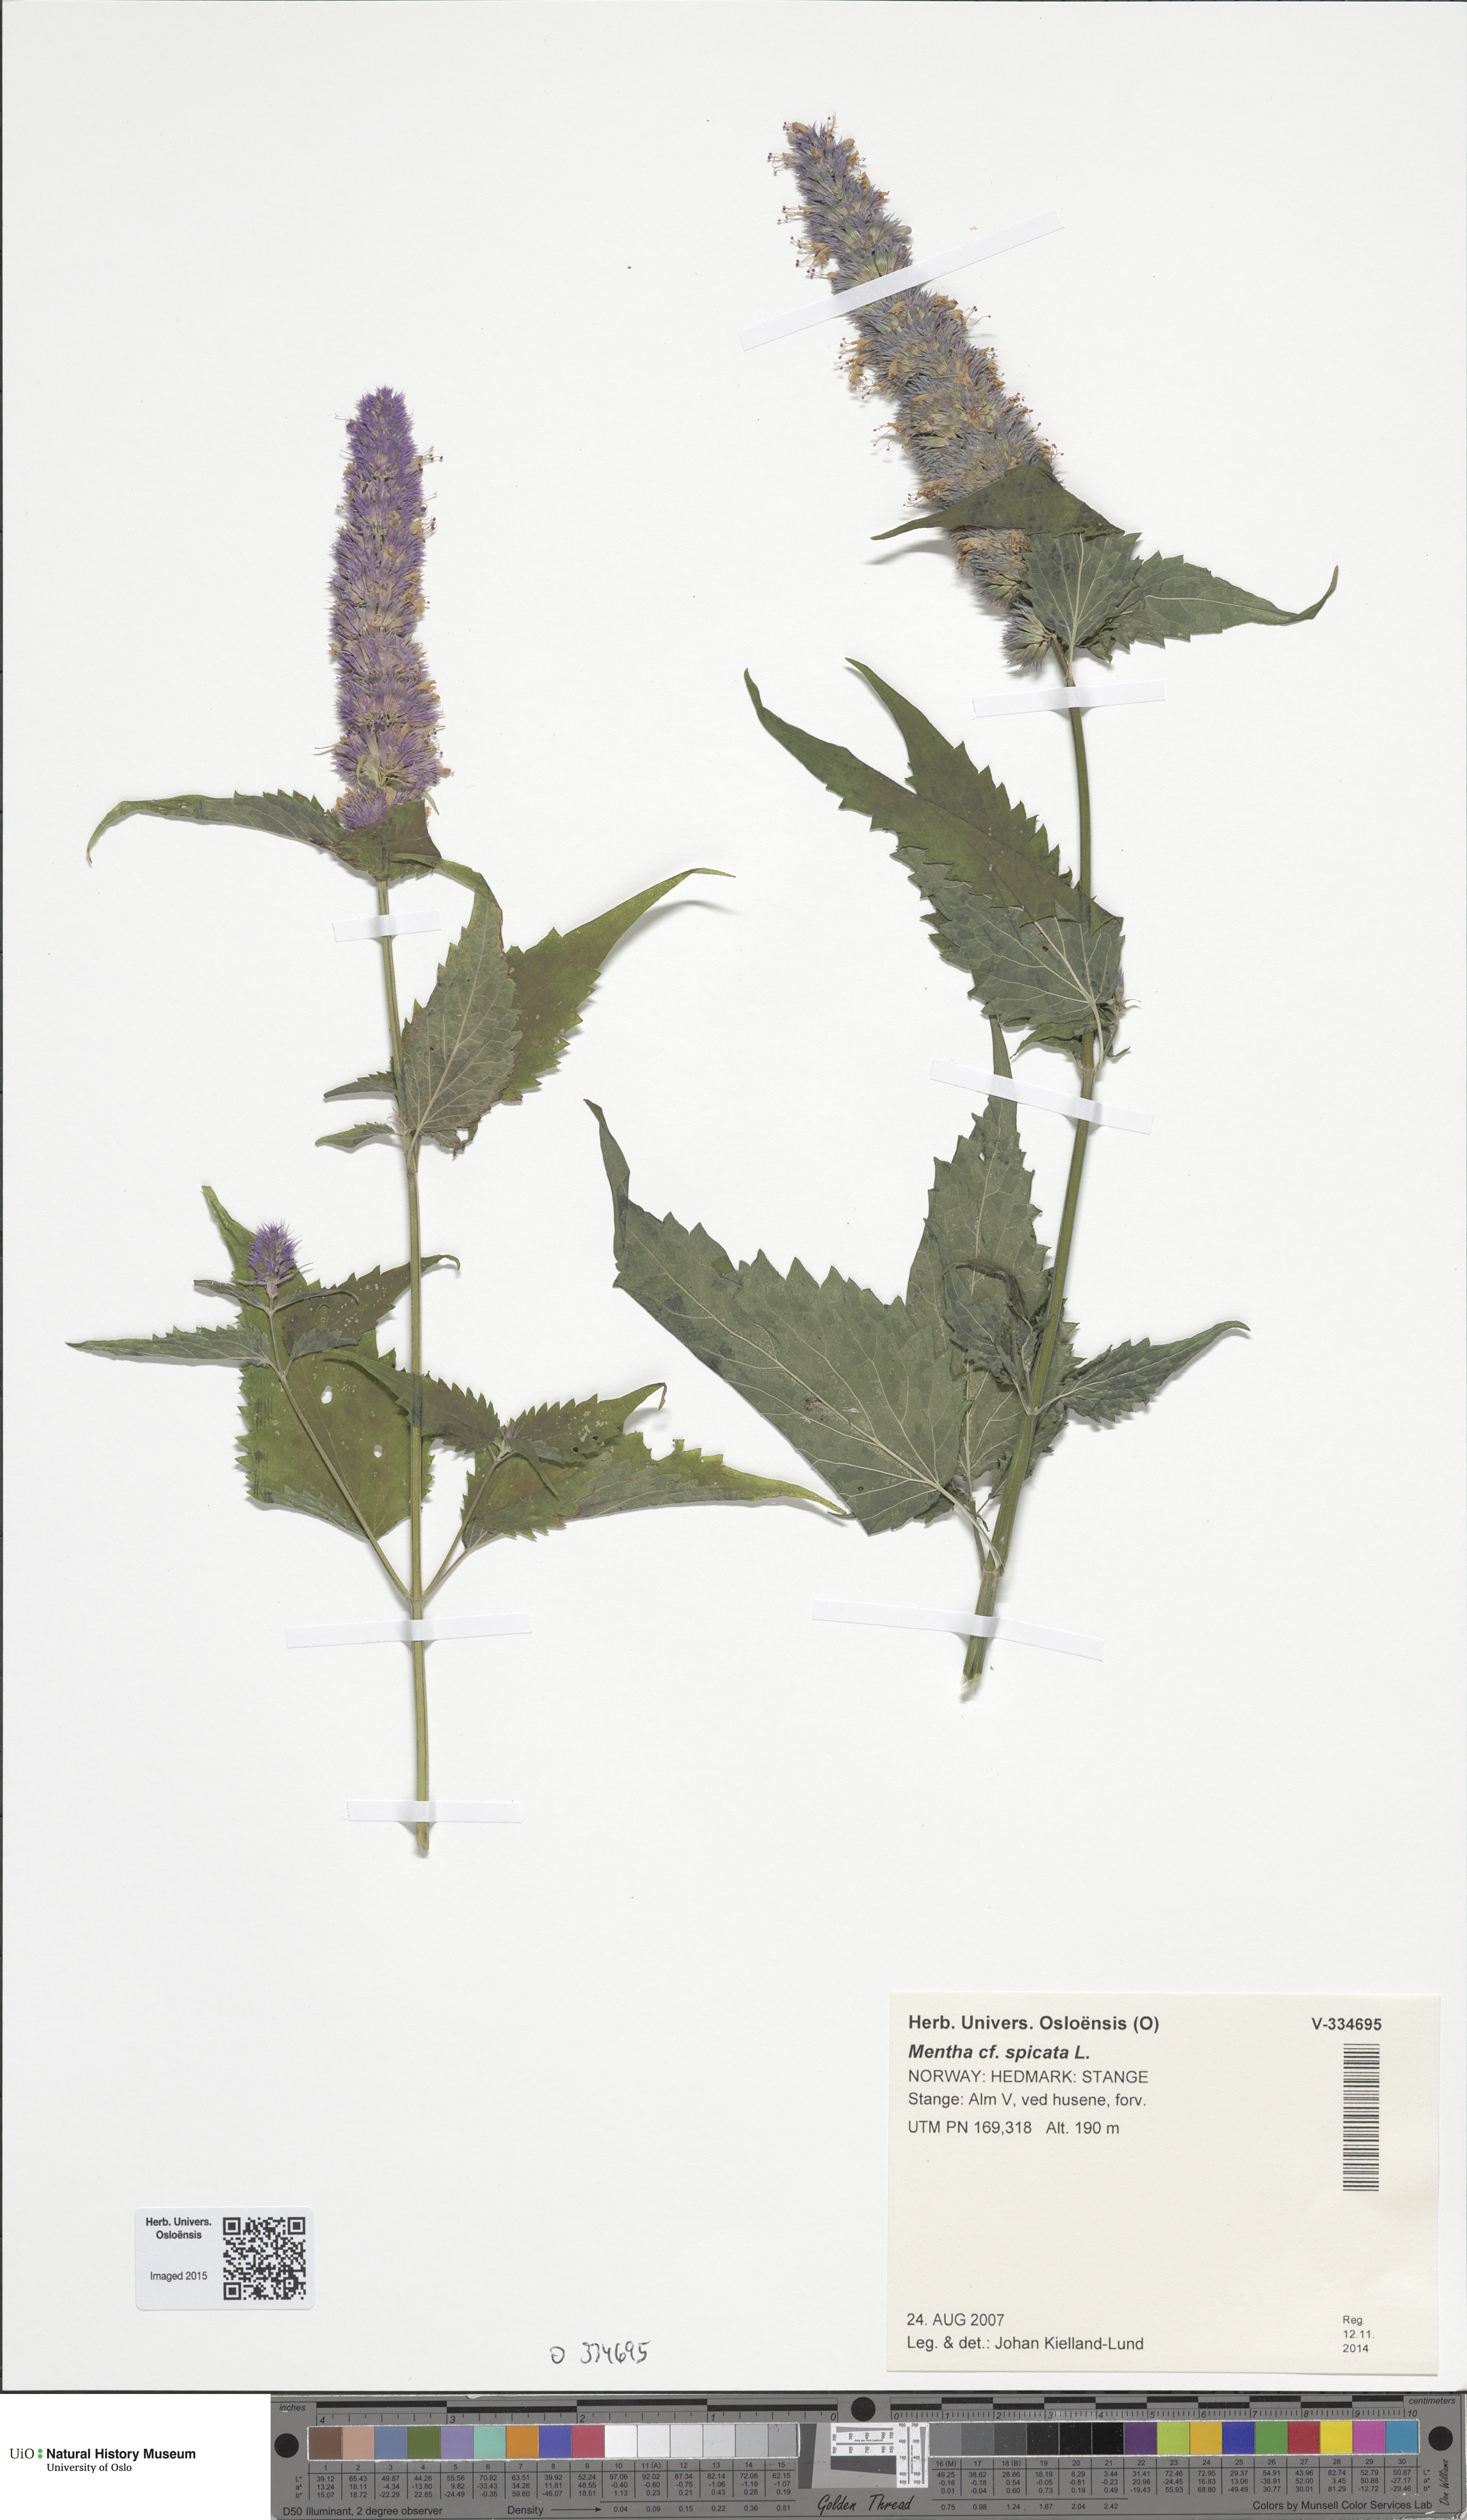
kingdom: Plantae
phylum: Tracheophyta
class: Magnoliopsida
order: Lamiales
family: Lamiaceae
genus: Agastache
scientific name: Agastache urticifolia
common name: Horsemint giant hyssop
